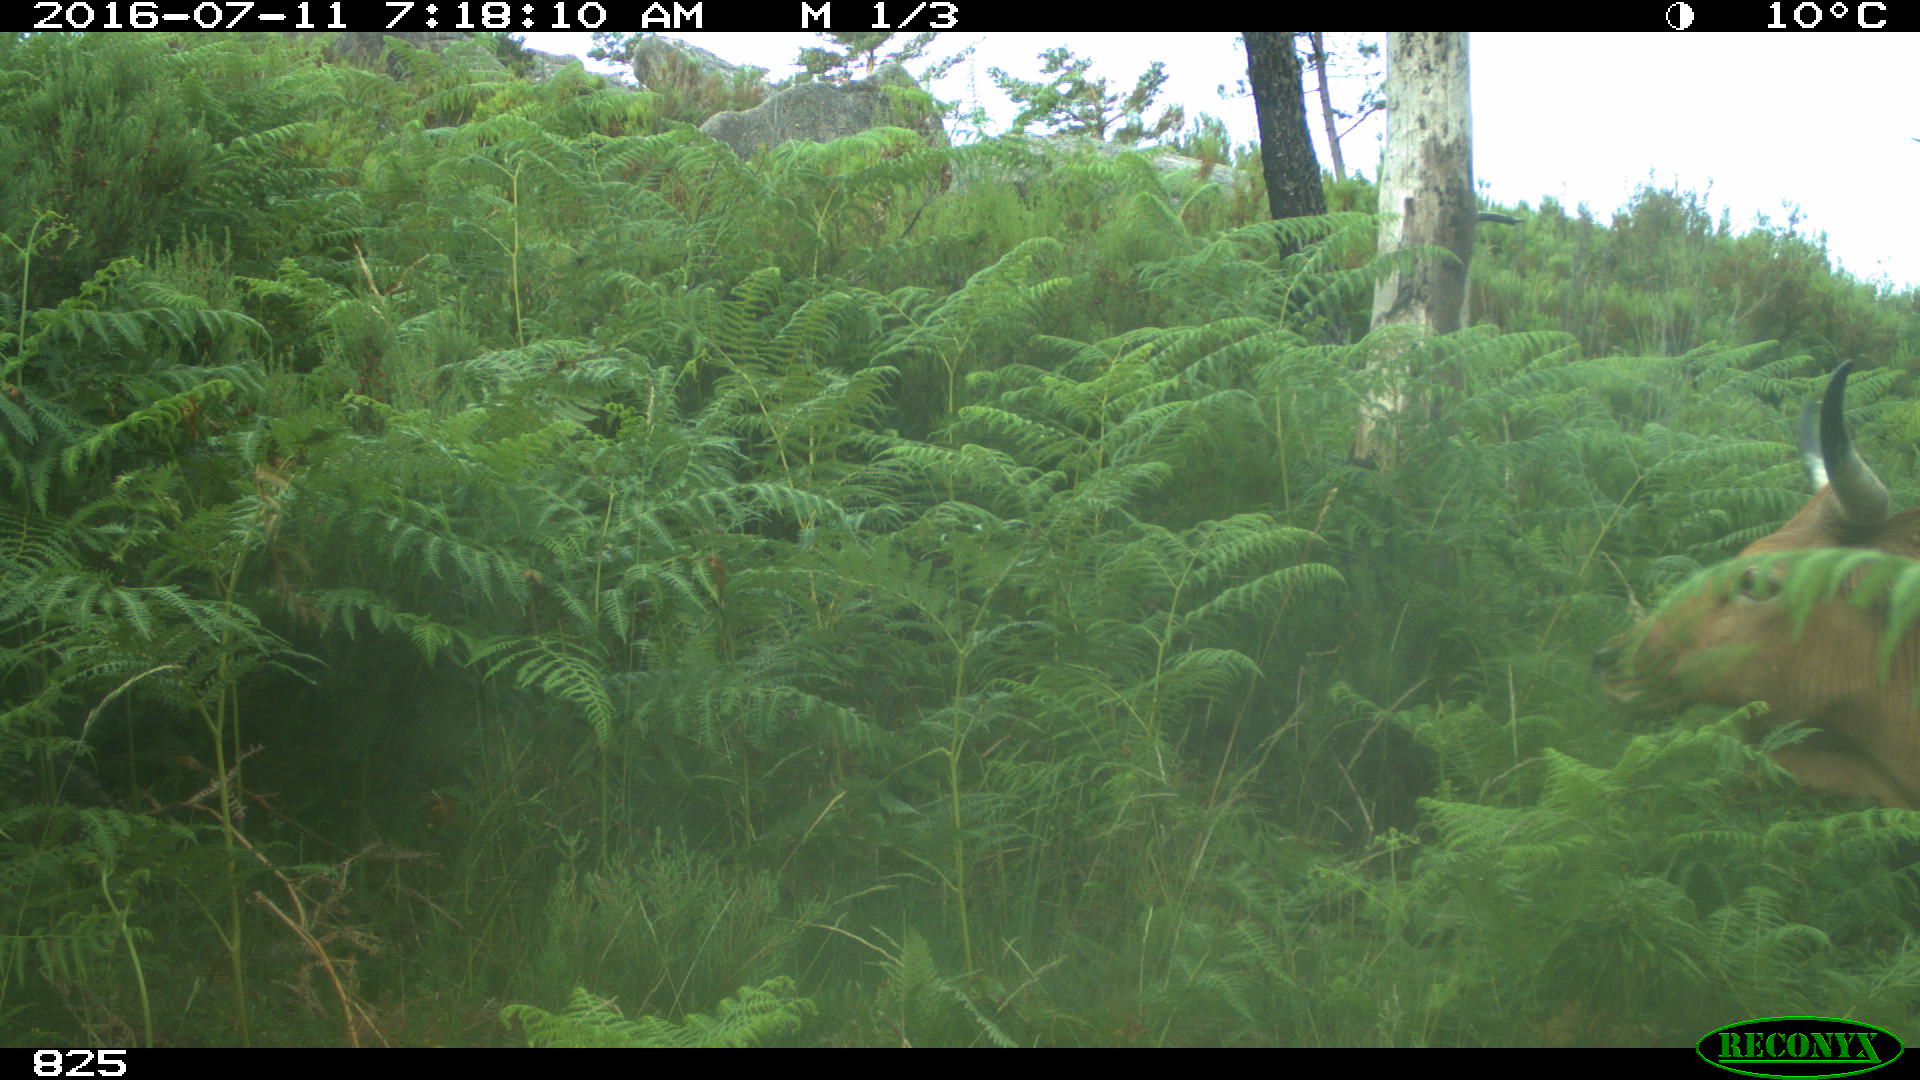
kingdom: Animalia
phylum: Chordata
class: Mammalia
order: Artiodactyla
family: Bovidae
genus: Bos
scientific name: Bos taurus
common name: Domesticated cattle
